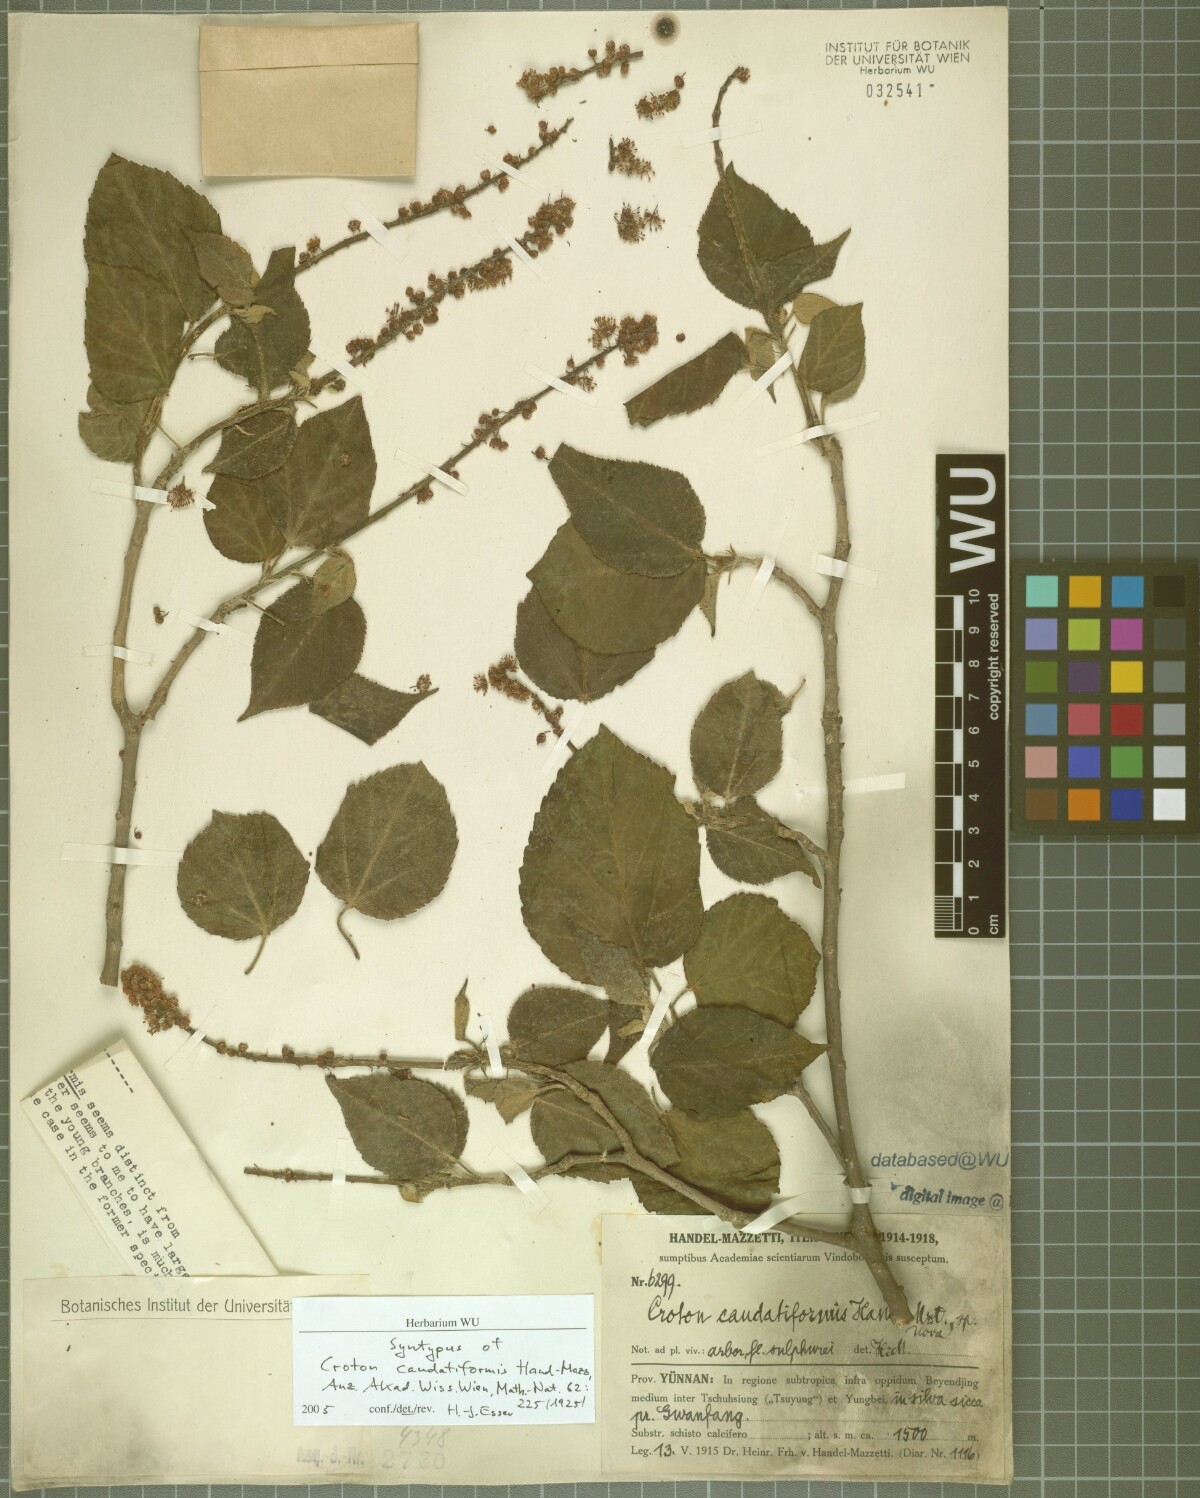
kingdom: Plantae
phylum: Tracheophyta
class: Magnoliopsida
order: Malpighiales
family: Euphorbiaceae
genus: Croton
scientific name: Croton euryphyllus
